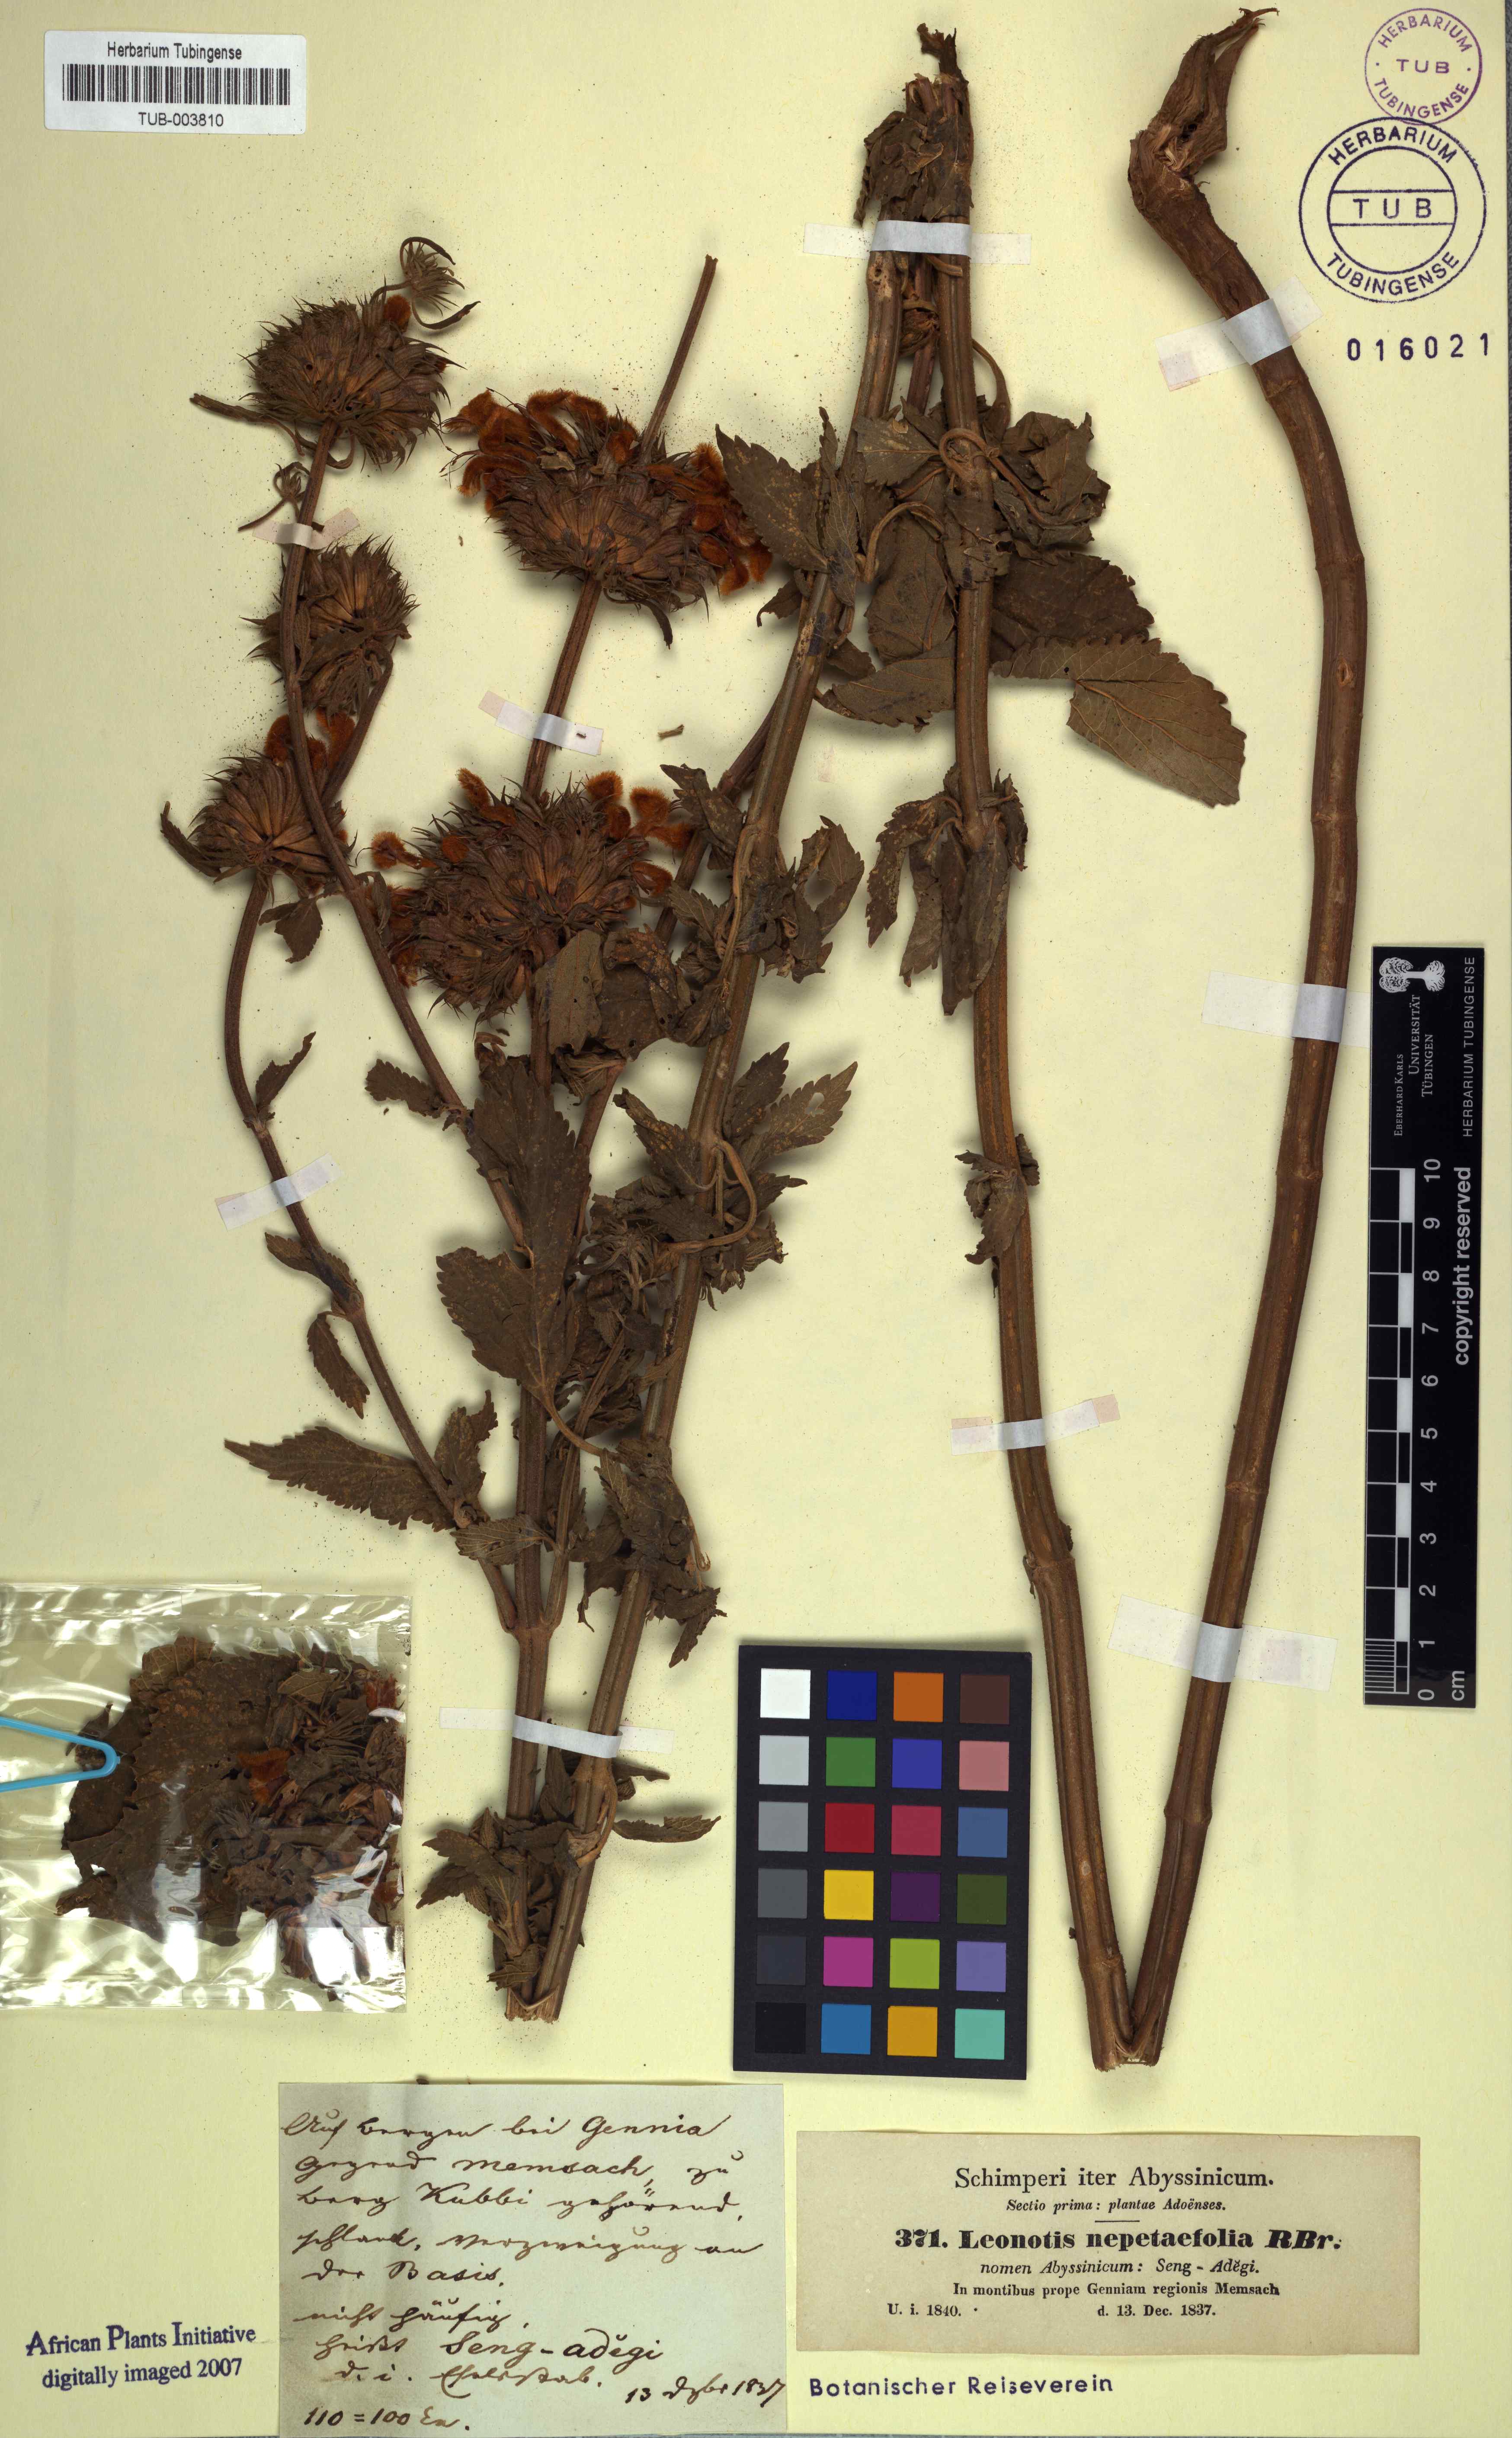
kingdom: Plantae
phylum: Tracheophyta
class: Magnoliopsida
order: Lamiales
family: Lamiaceae
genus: Leonotis
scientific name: Leonotis nepetifolia
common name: Christmas candlestick
